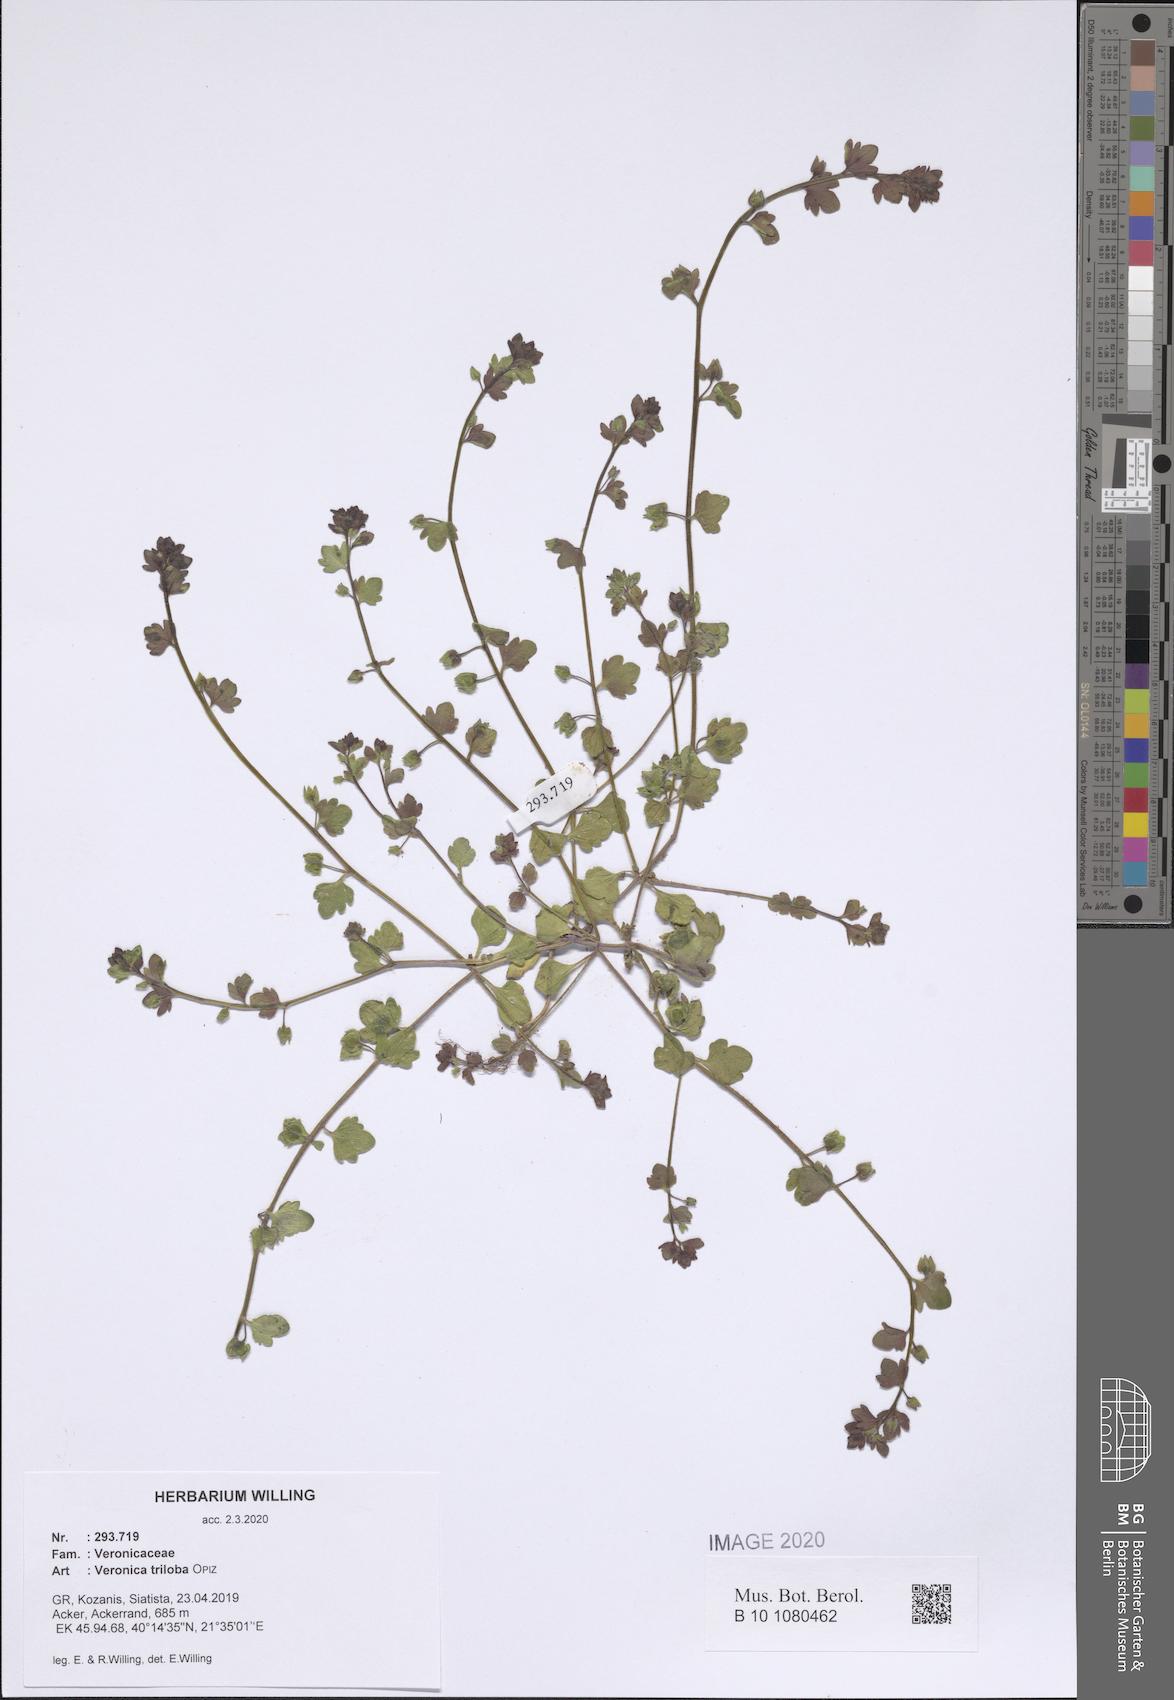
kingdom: Plantae
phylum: Tracheophyta
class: Magnoliopsida
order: Lamiales
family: Plantaginaceae
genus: Veronica
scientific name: Veronica triloba
